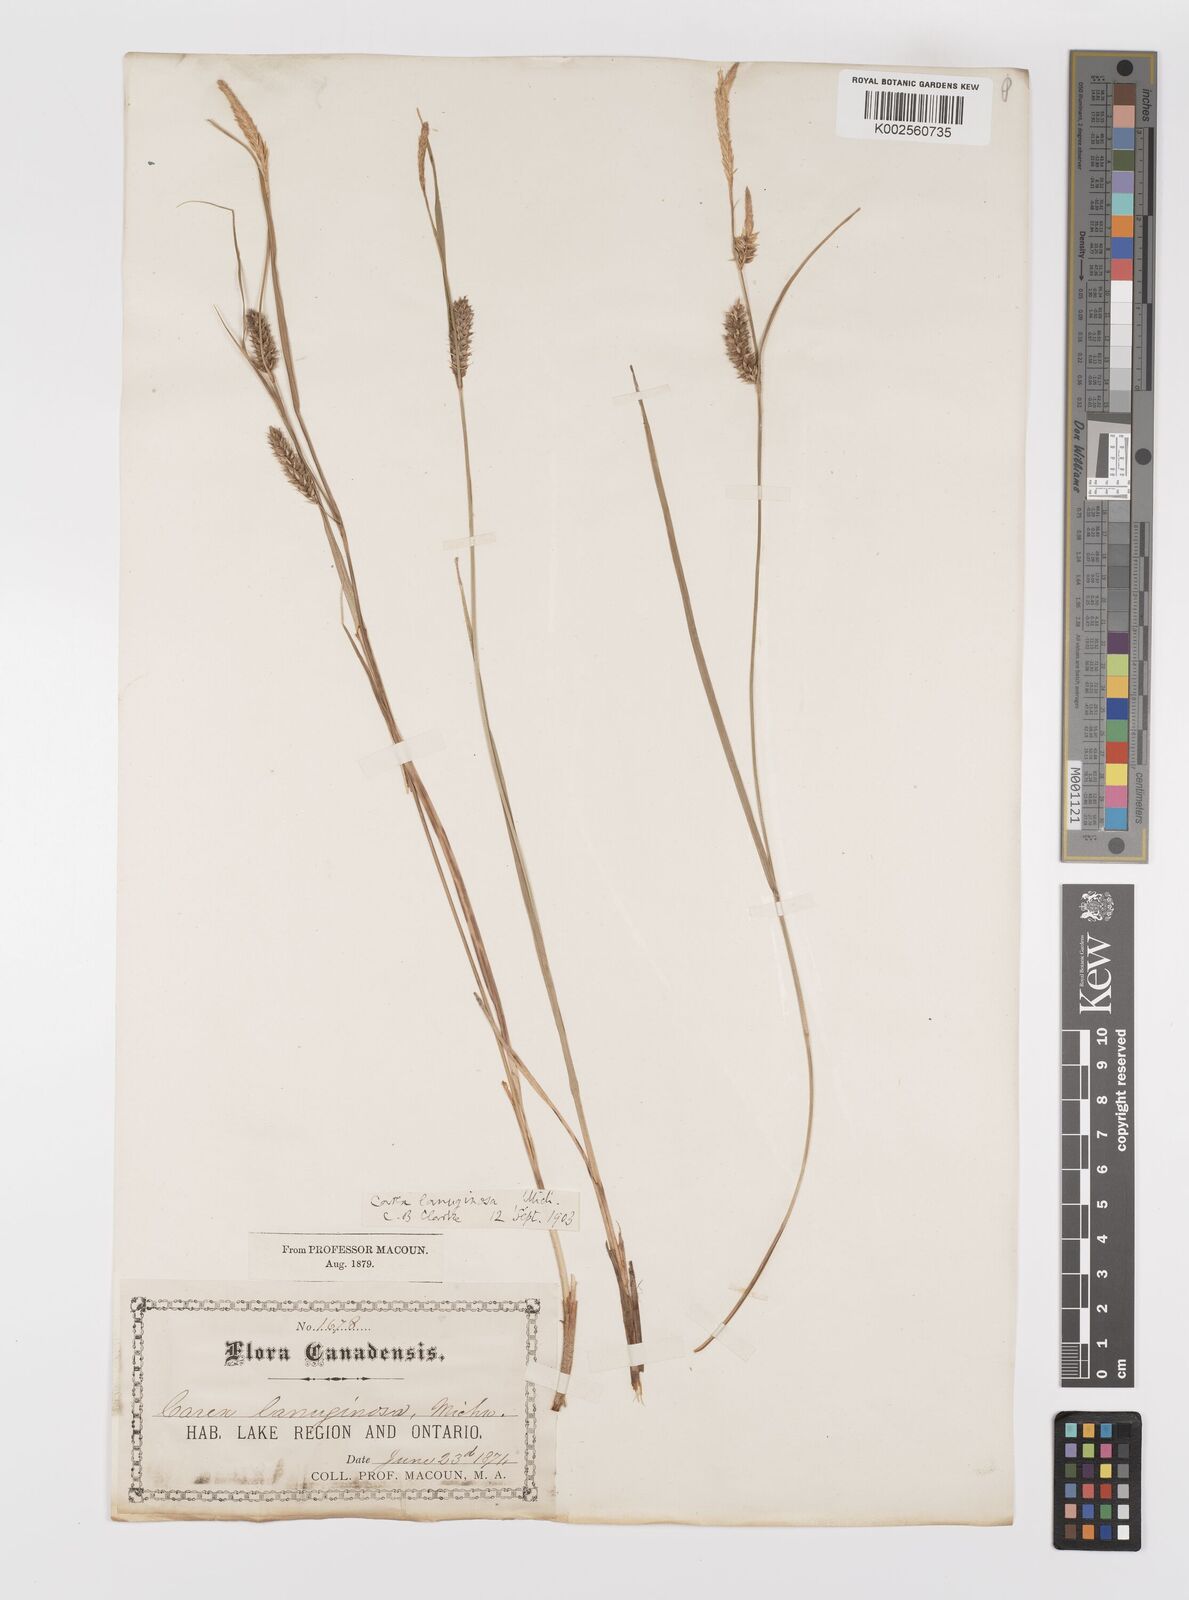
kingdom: Plantae
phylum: Tracheophyta
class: Liliopsida
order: Poales
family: Cyperaceae
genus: Carex
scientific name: Carex lasiocarpa
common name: Slender sedge
